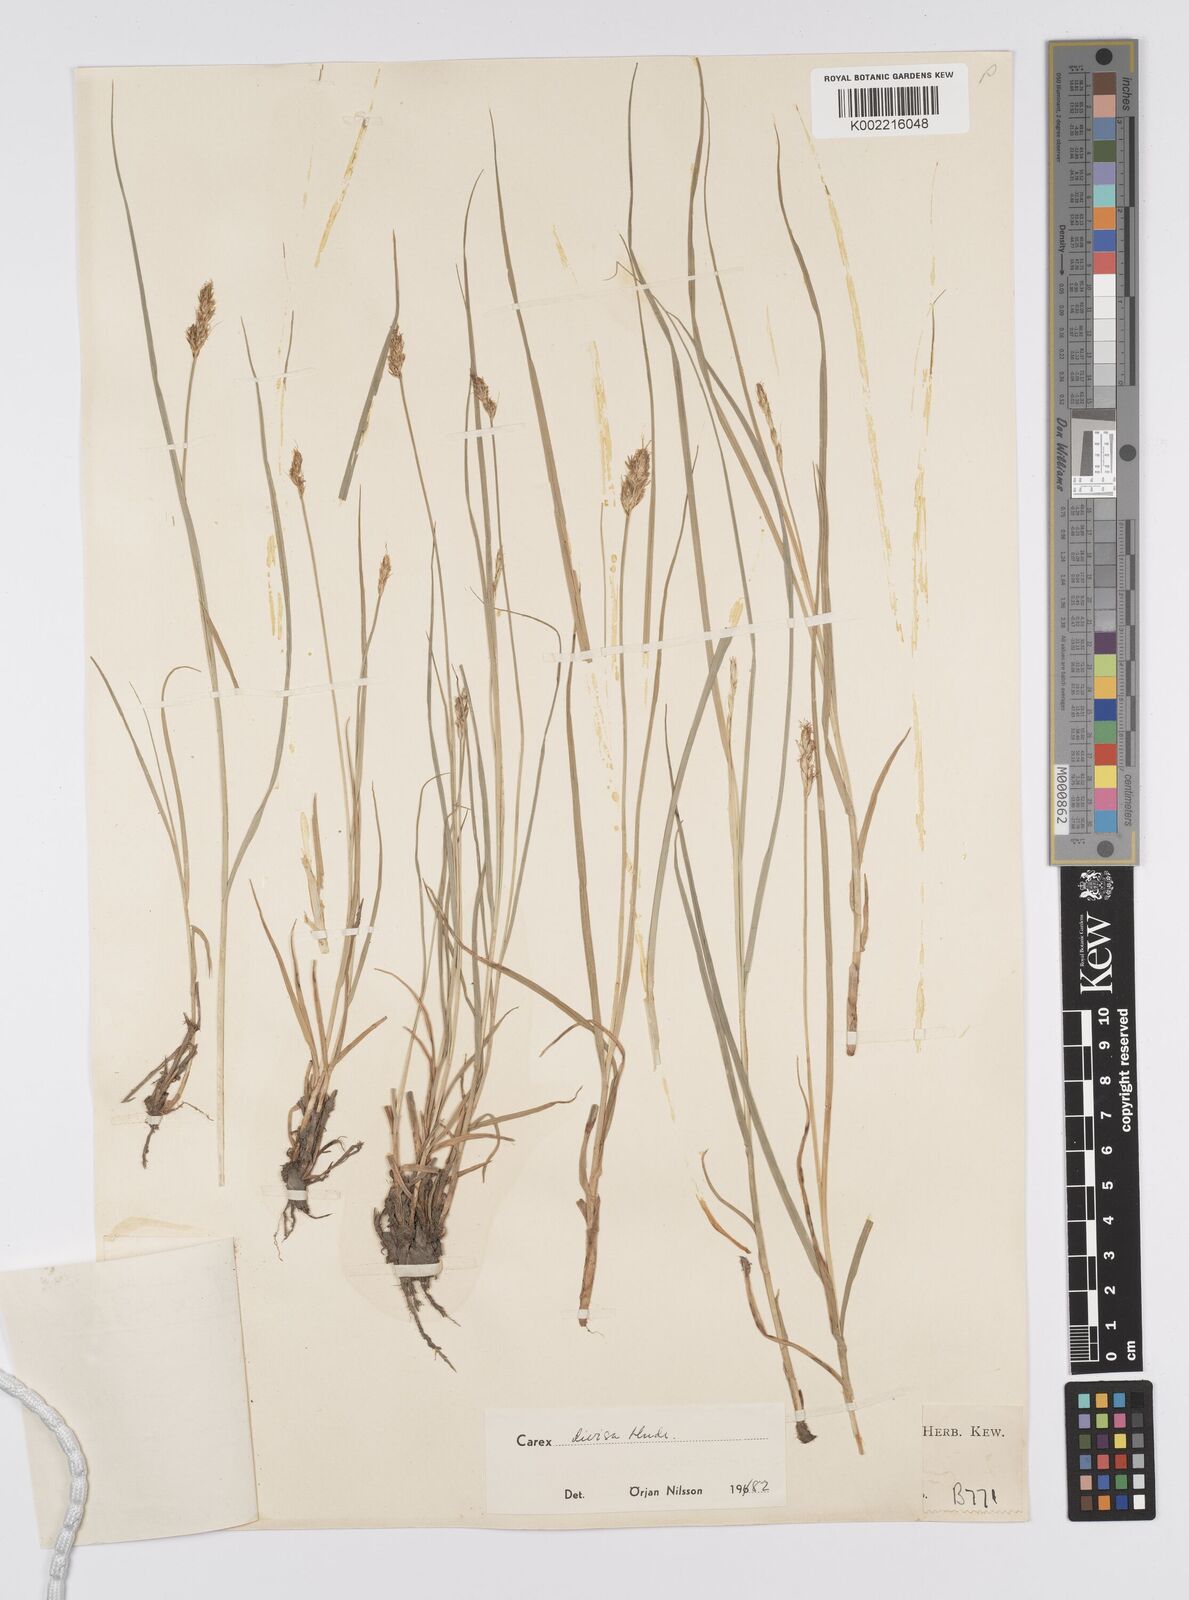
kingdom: Plantae
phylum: Tracheophyta
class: Liliopsida
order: Poales
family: Cyperaceae
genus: Carex
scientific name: Carex divisa
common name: Divided sedge
